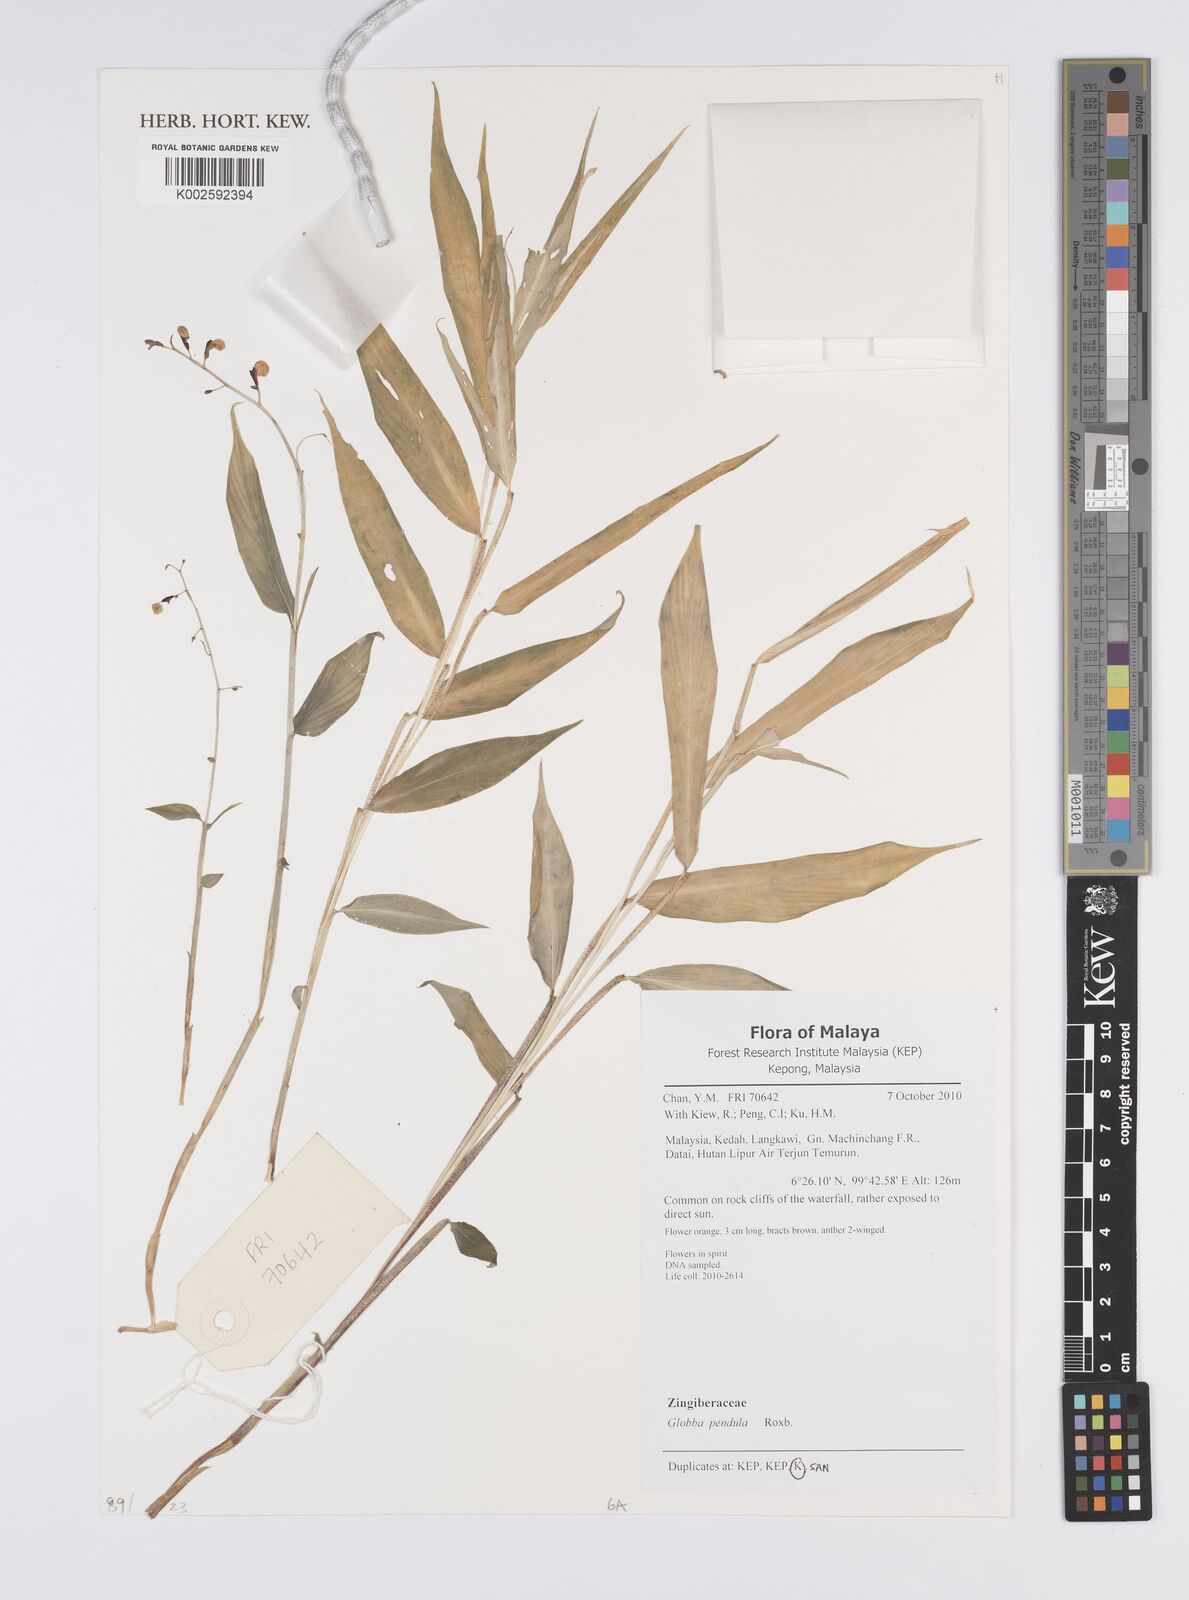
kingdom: Plantae
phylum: Tracheophyta
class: Liliopsida
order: Zingiberales
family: Zingiberaceae
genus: Globba
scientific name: Globba pendula
